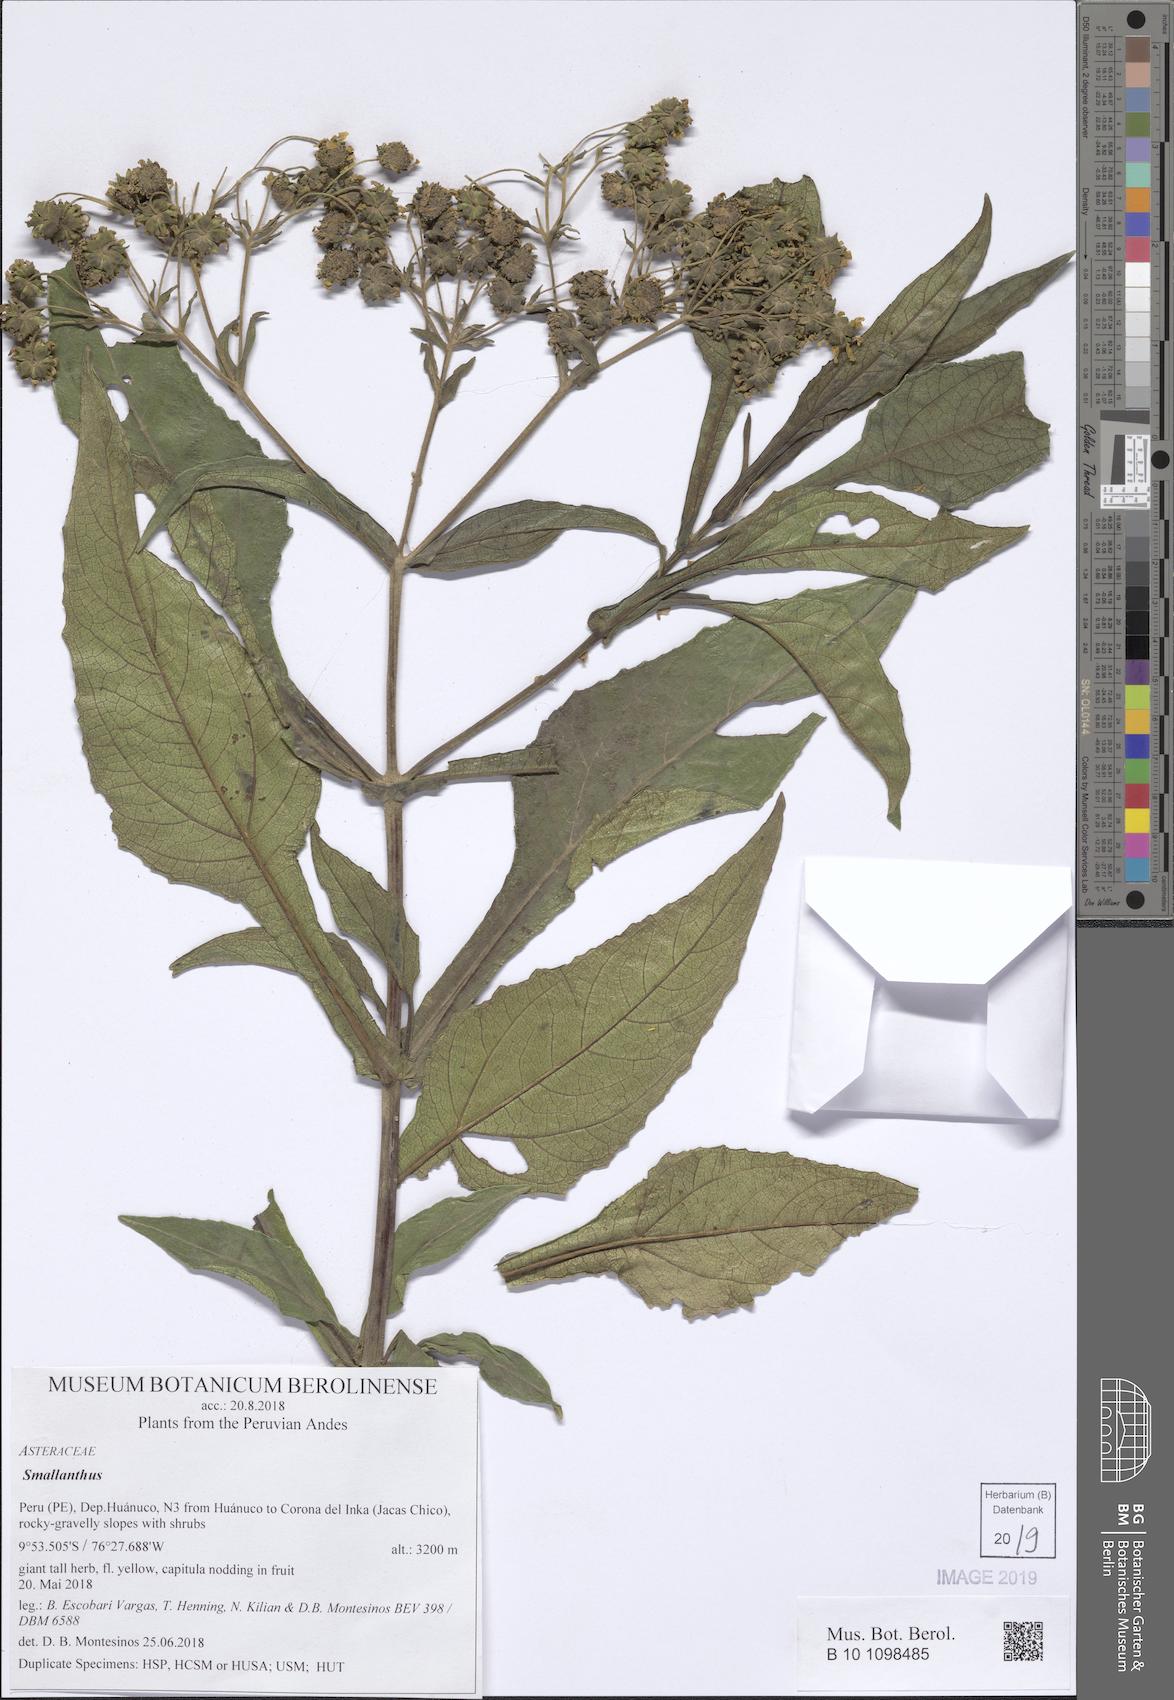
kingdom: Plantae
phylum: Tracheophyta
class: Magnoliopsida
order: Asterales
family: Asteraceae
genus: Smallanthus
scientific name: Smallanthus
